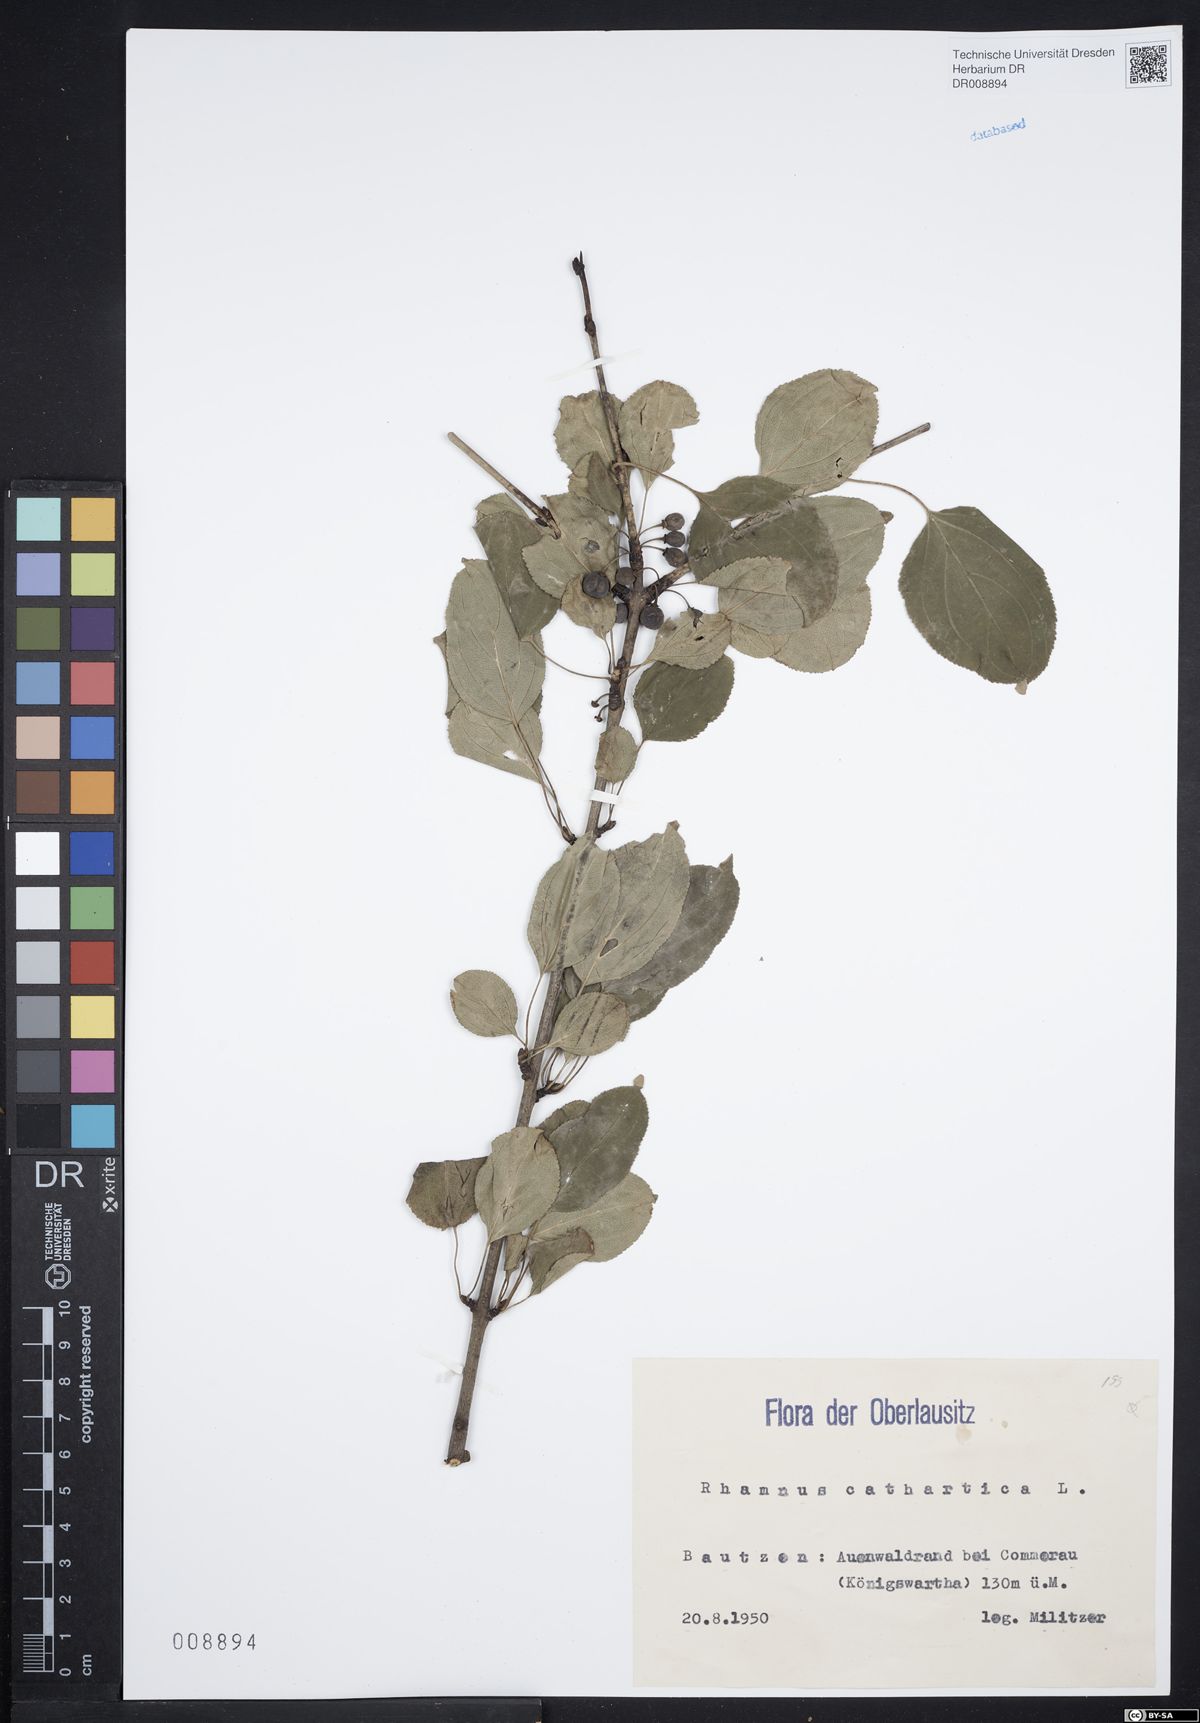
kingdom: Plantae
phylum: Tracheophyta
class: Magnoliopsida
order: Rosales
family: Rhamnaceae
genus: Rhamnus
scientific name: Rhamnus cathartica
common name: Common buckthorn
